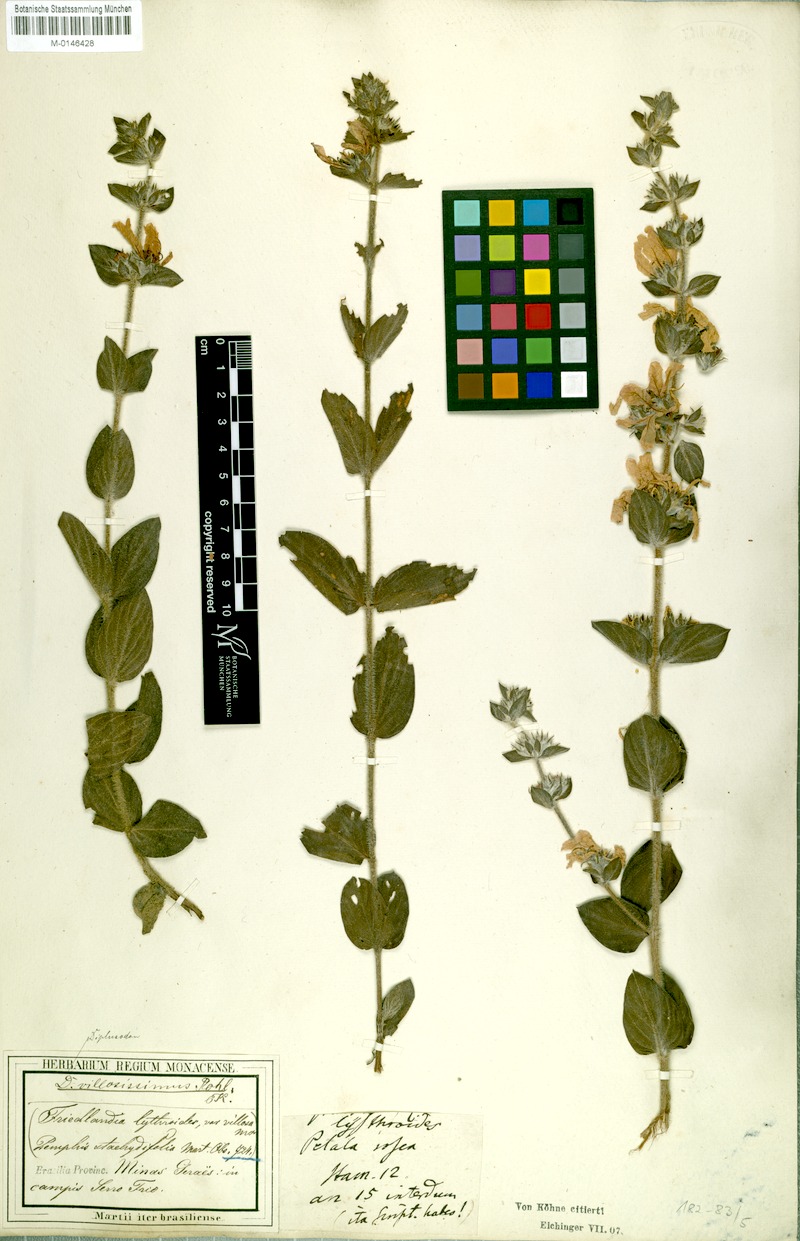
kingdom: Plantae
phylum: Tracheophyta
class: Magnoliopsida
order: Myrtales
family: Lythraceae
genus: Diplusodon
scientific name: Diplusodon villosissimus
